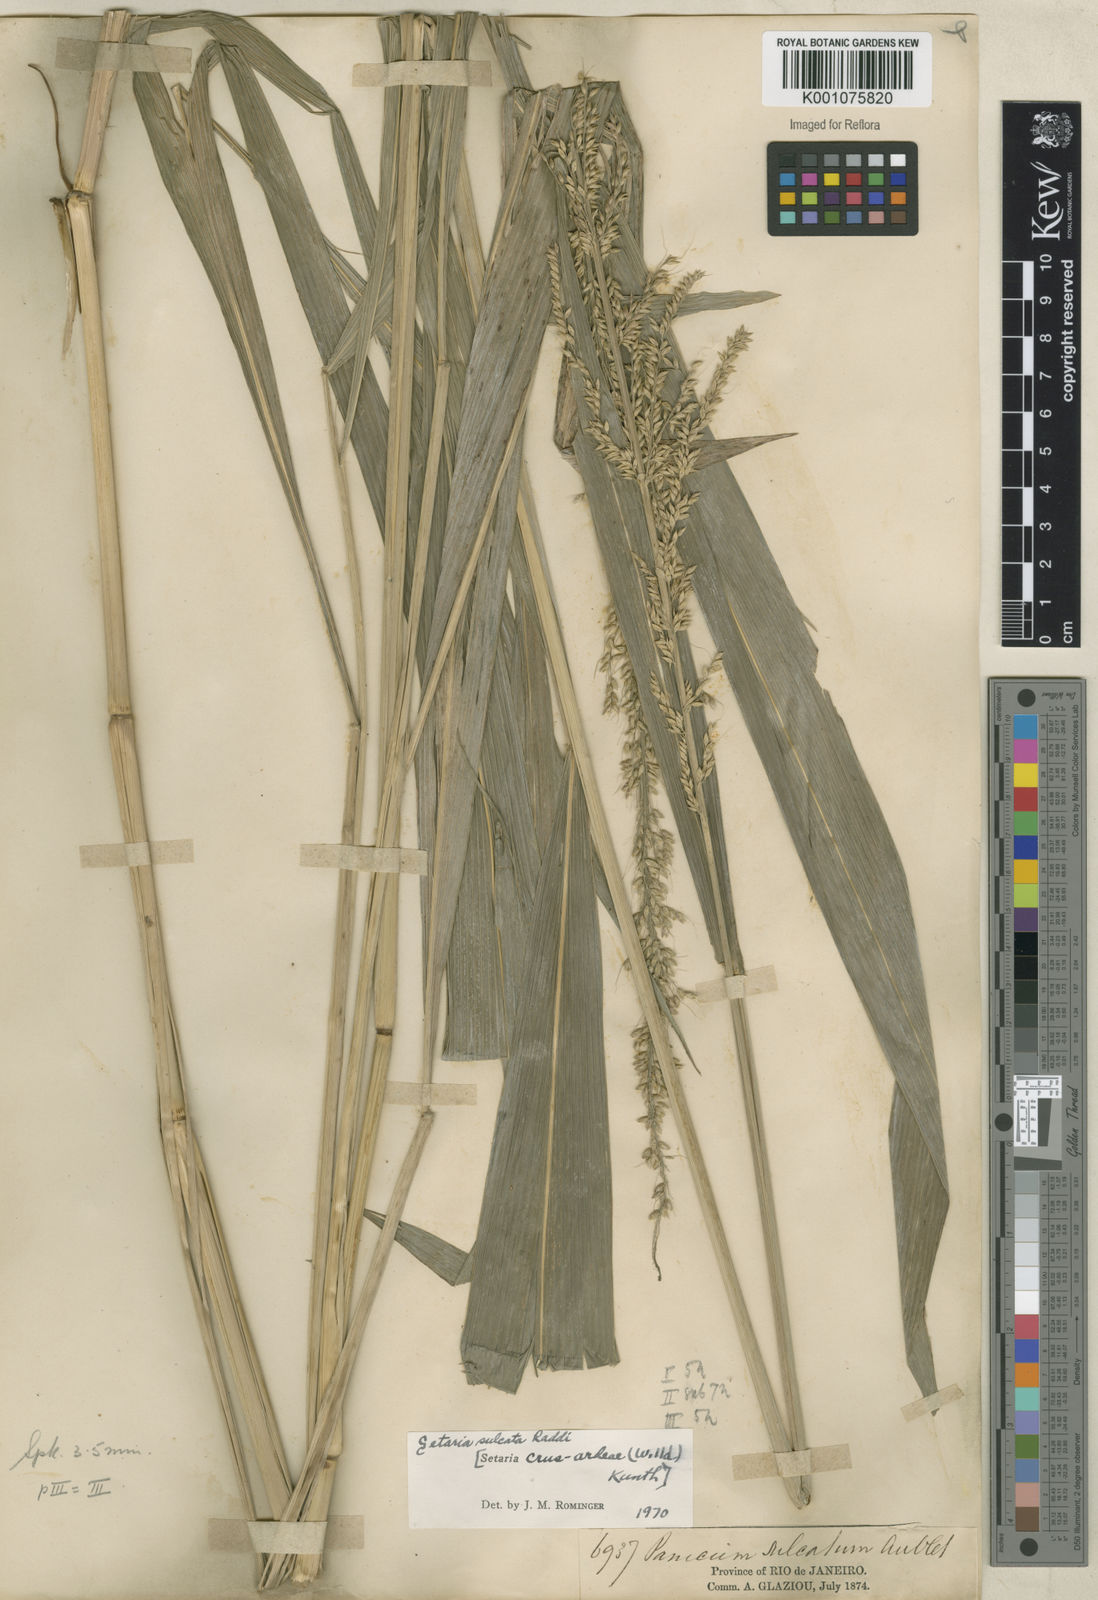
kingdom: Plantae
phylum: Tracheophyta
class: Liliopsida
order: Poales
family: Poaceae
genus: Setaria
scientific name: Setaria sulcata
